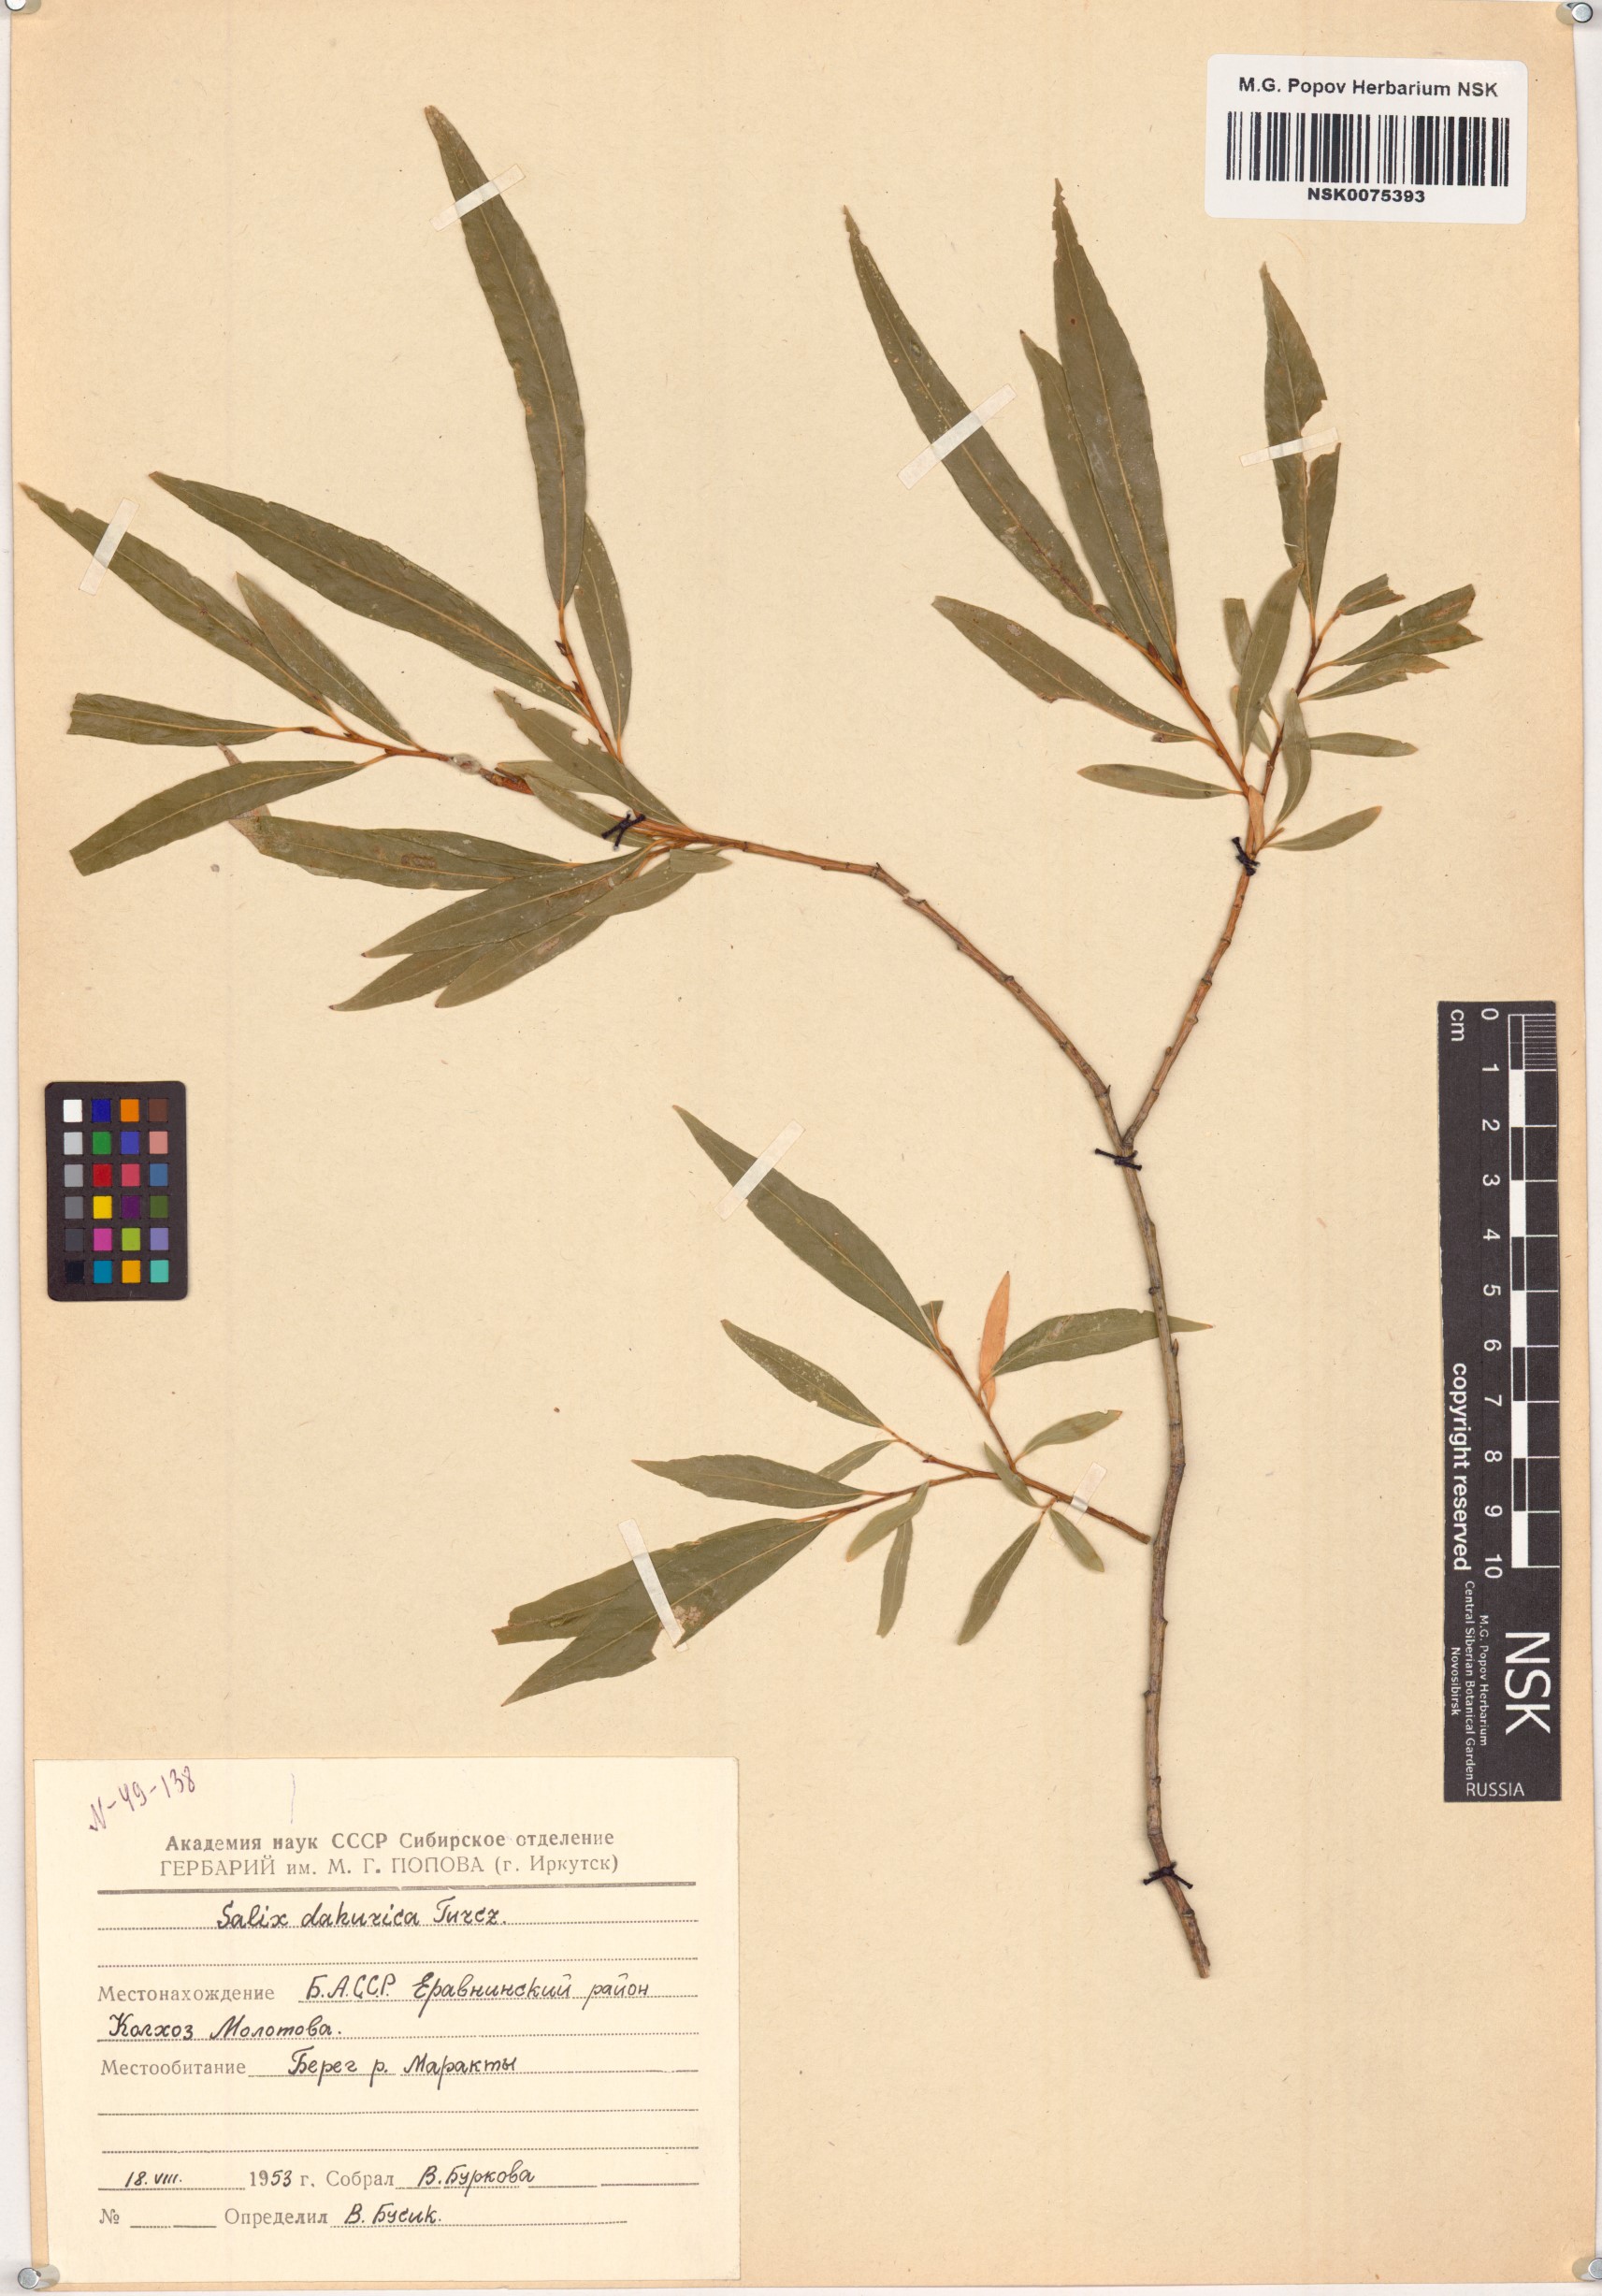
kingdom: Plantae
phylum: Tracheophyta
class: Magnoliopsida
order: Malpighiales
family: Salicaceae
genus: Salix
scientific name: Salix
